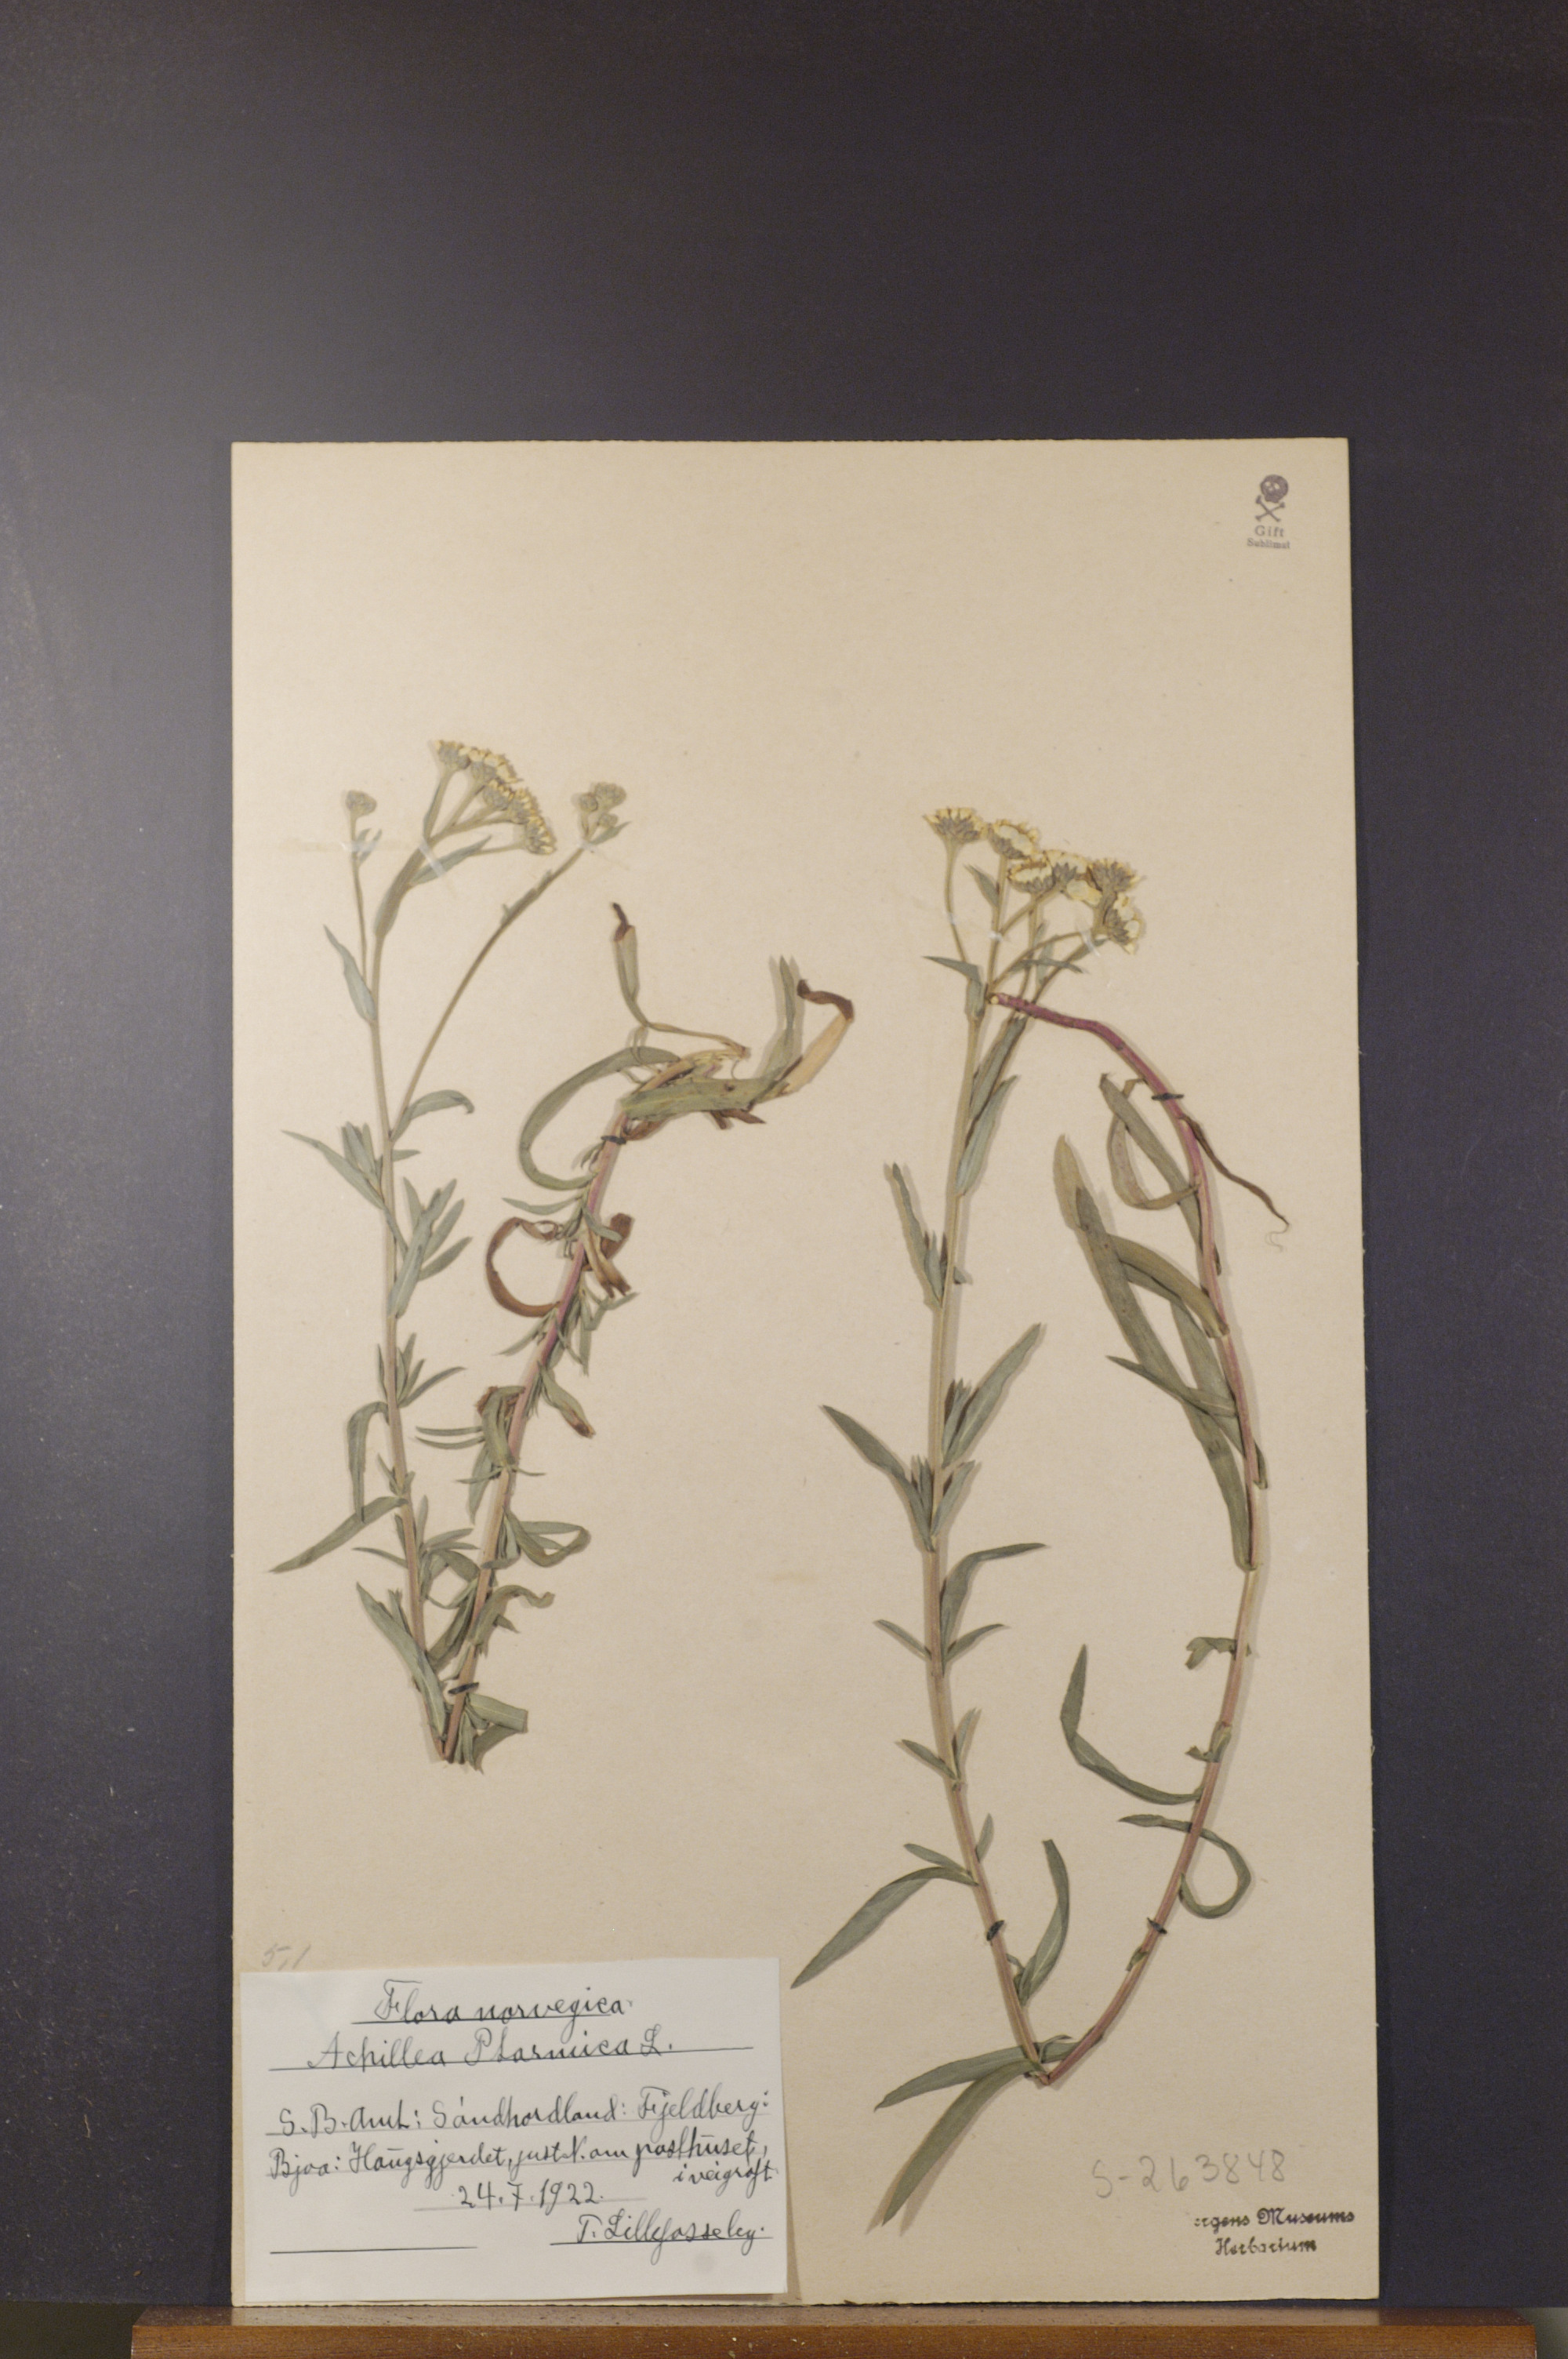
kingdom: Plantae
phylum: Tracheophyta
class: Magnoliopsida
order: Asterales
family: Asteraceae
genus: Achillea
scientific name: Achillea ptarmica
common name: Sneezeweed
